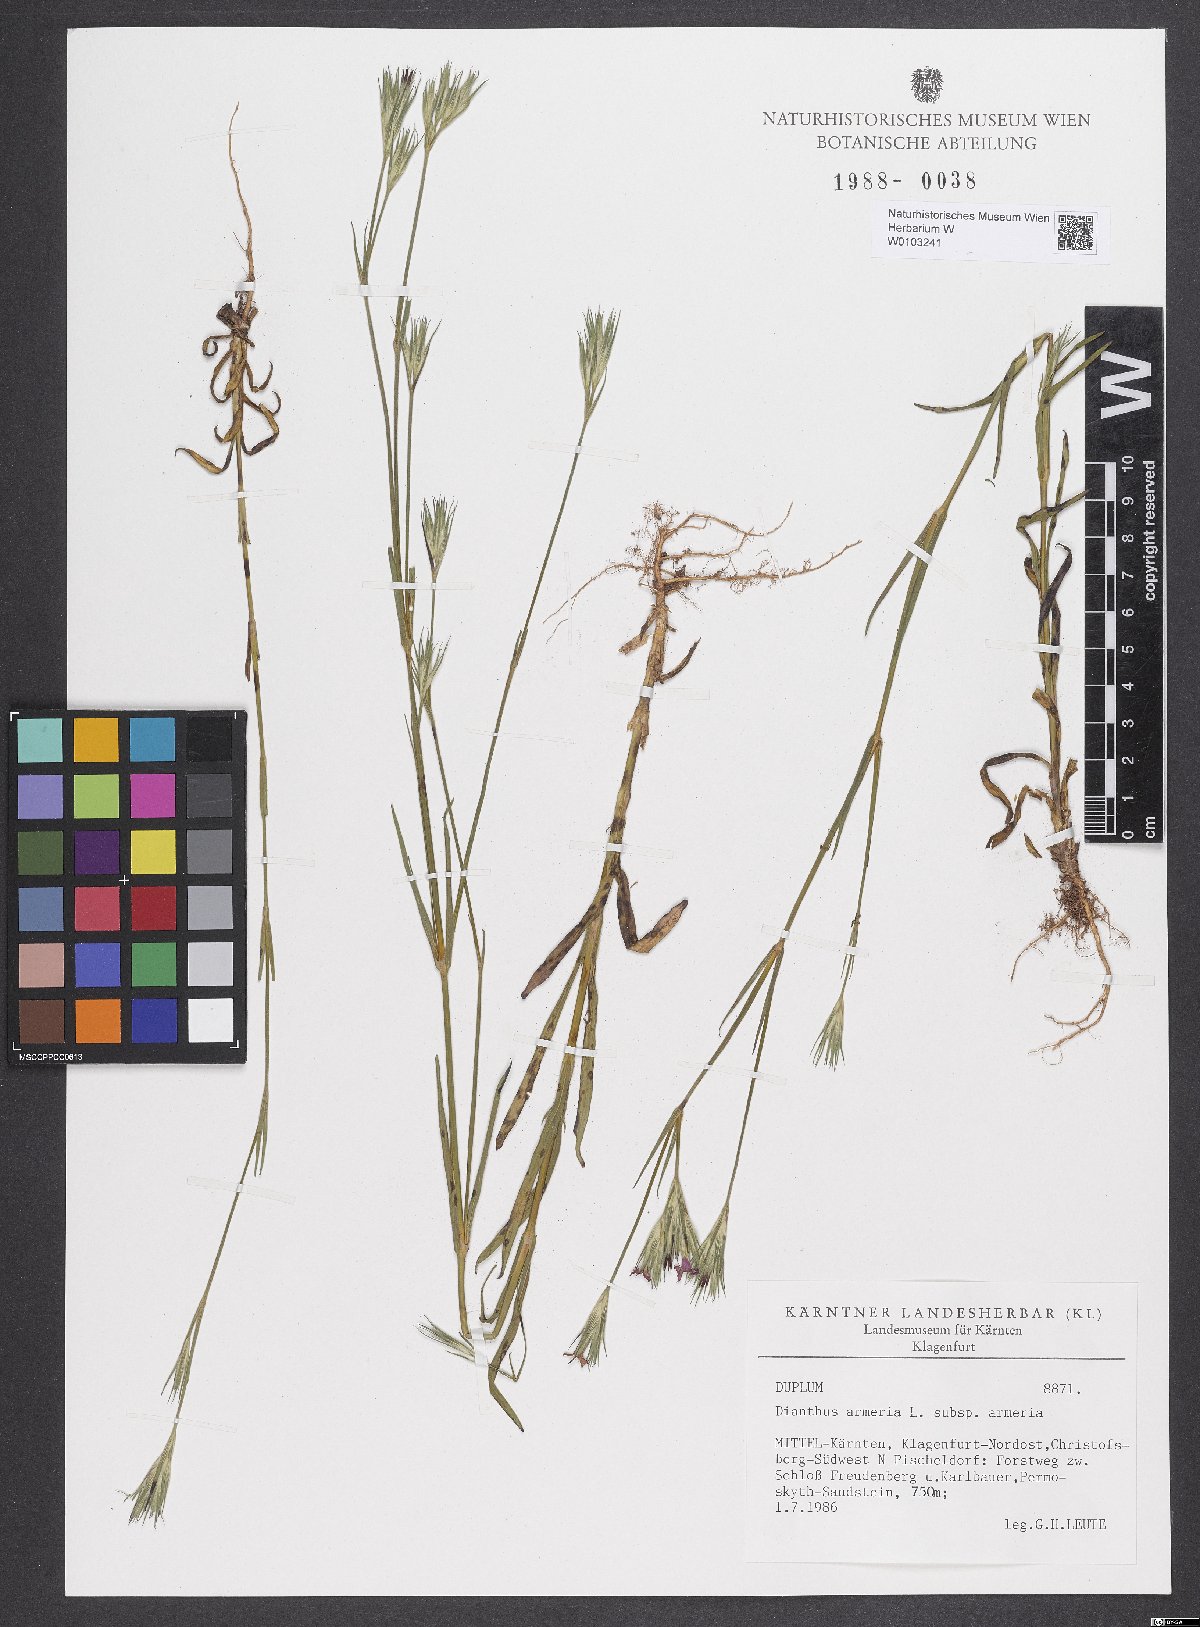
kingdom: Plantae
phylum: Tracheophyta
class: Magnoliopsida
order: Caryophyllales
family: Caryophyllaceae
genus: Dianthus
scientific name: Dianthus armeria
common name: Deptford pink
